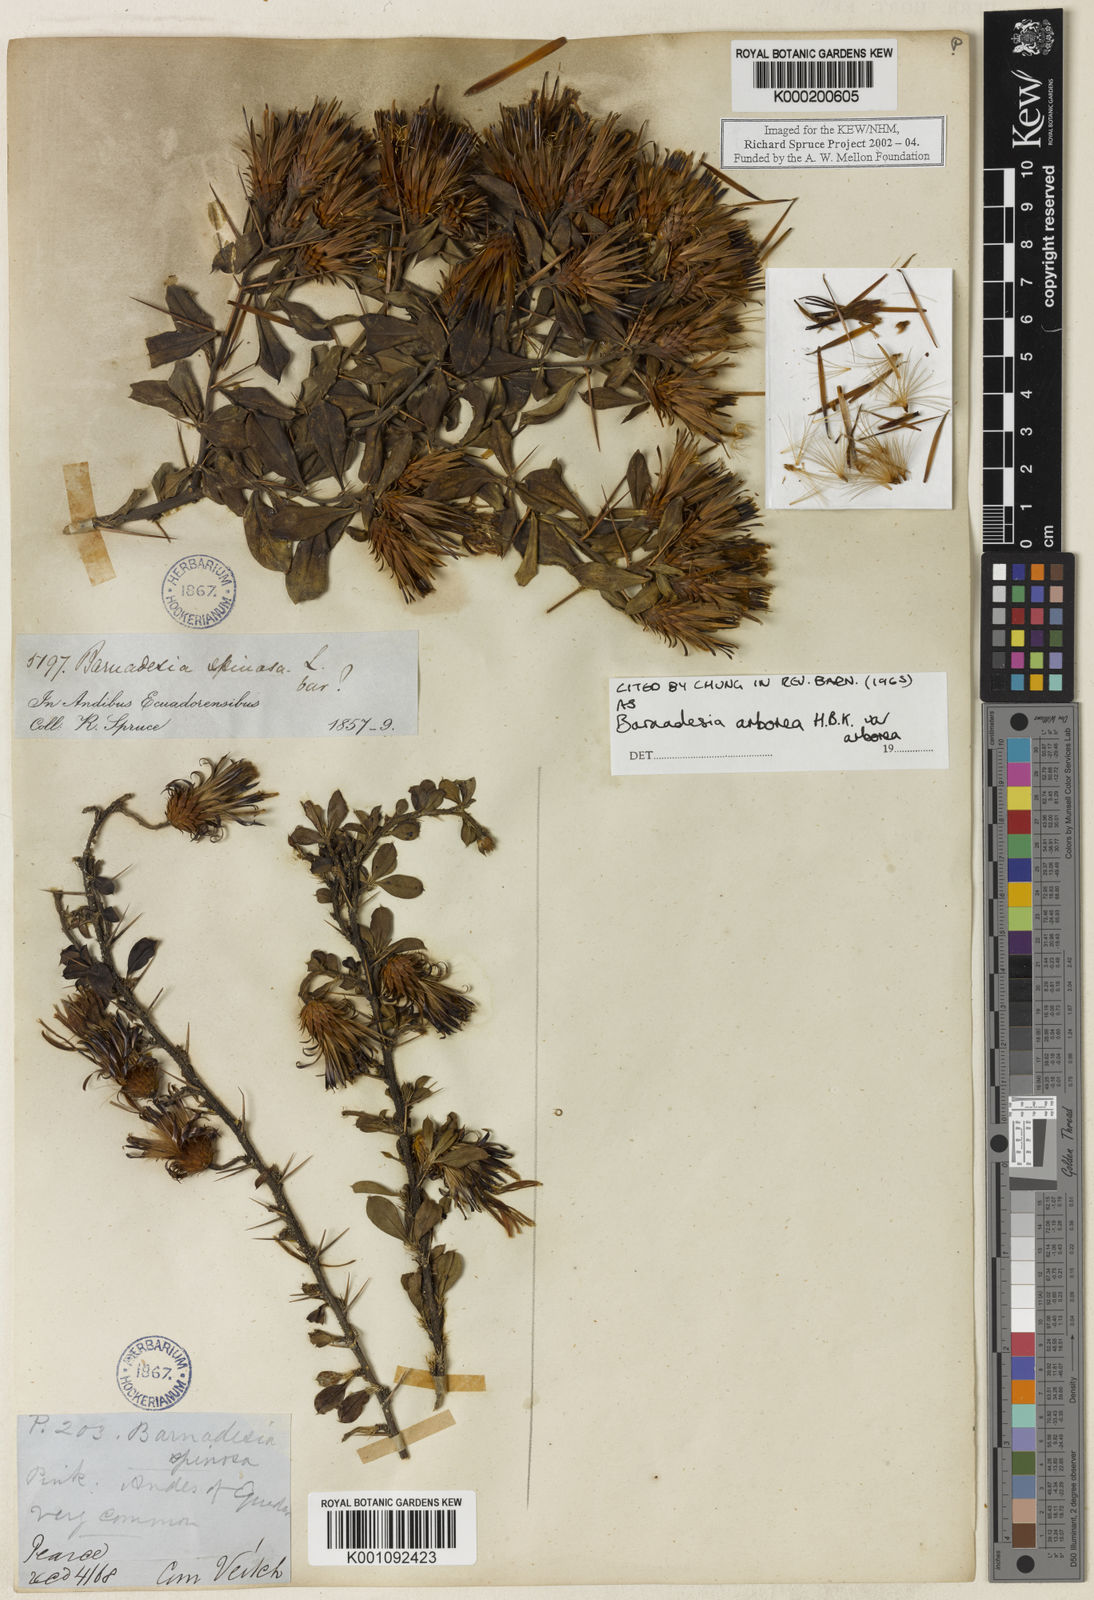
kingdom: Plantae
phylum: Tracheophyta
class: Magnoliopsida
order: Asterales
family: Asteraceae
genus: Barnadesia
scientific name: Barnadesia
